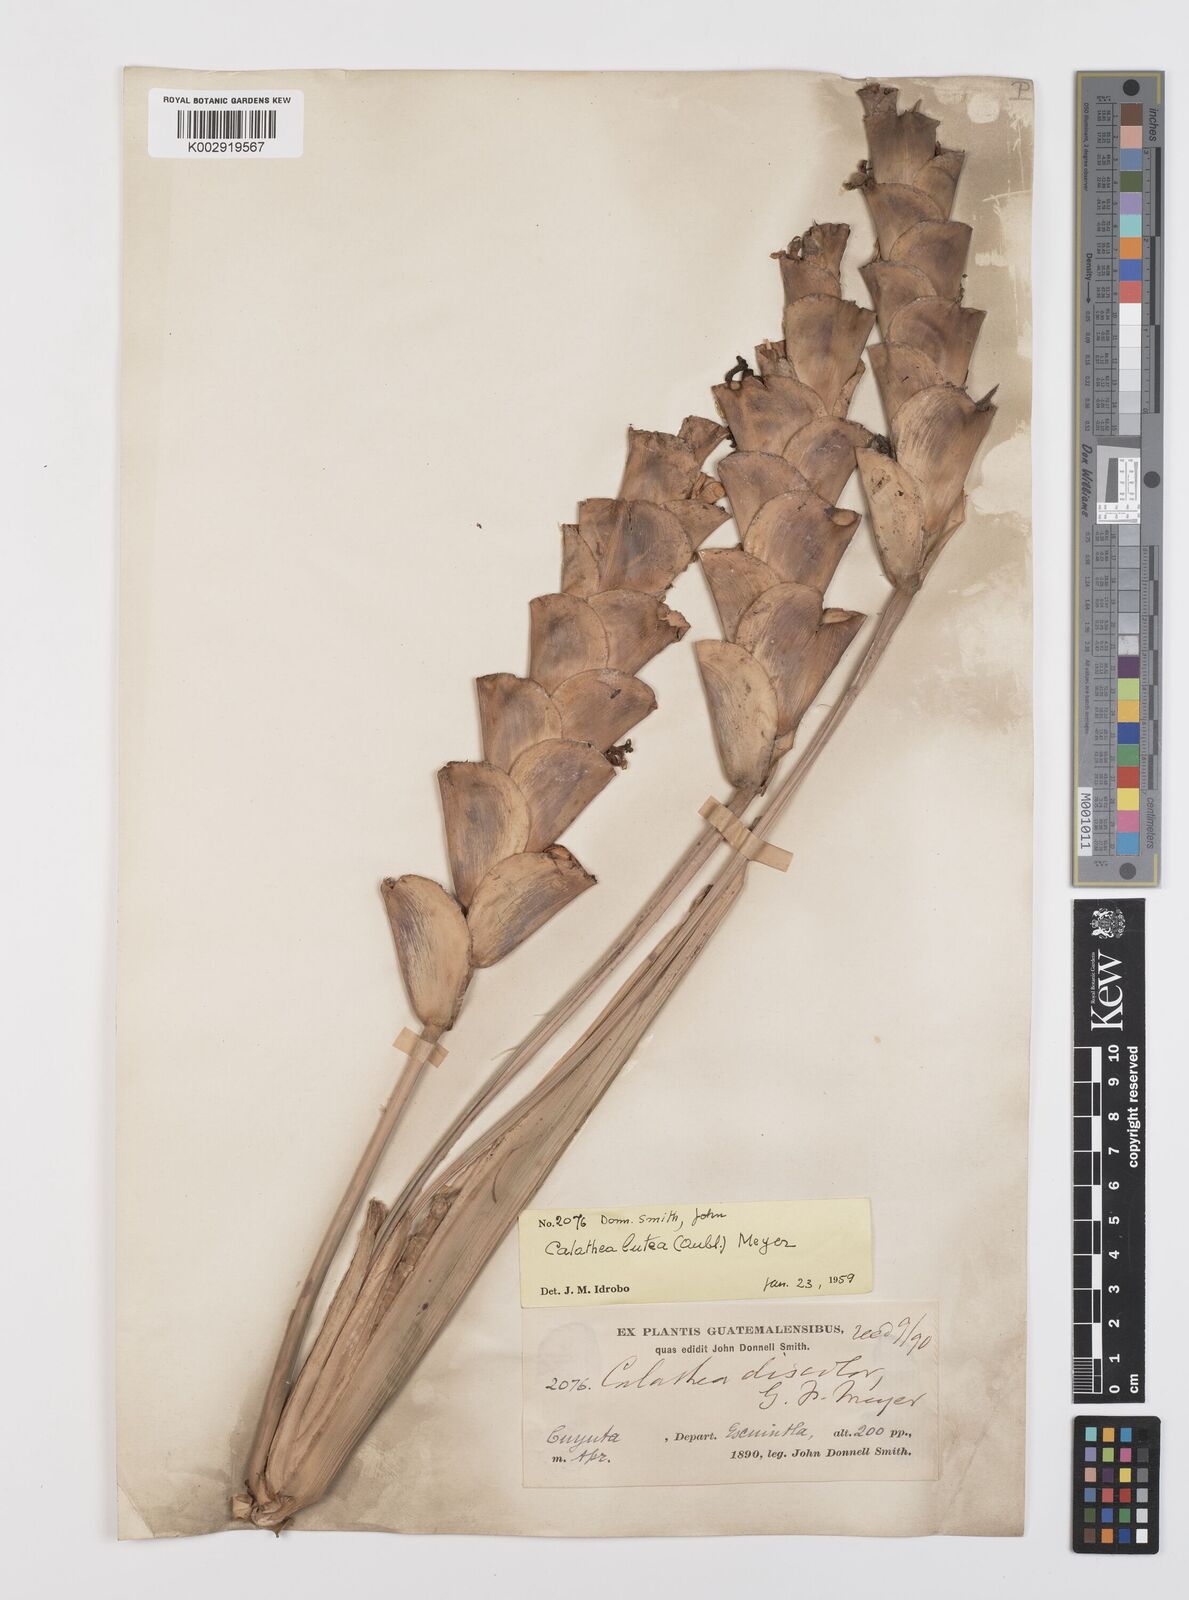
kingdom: Plantae
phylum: Tracheophyta
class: Liliopsida
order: Zingiberales
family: Marantaceae
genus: Calathea
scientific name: Calathea lutea
